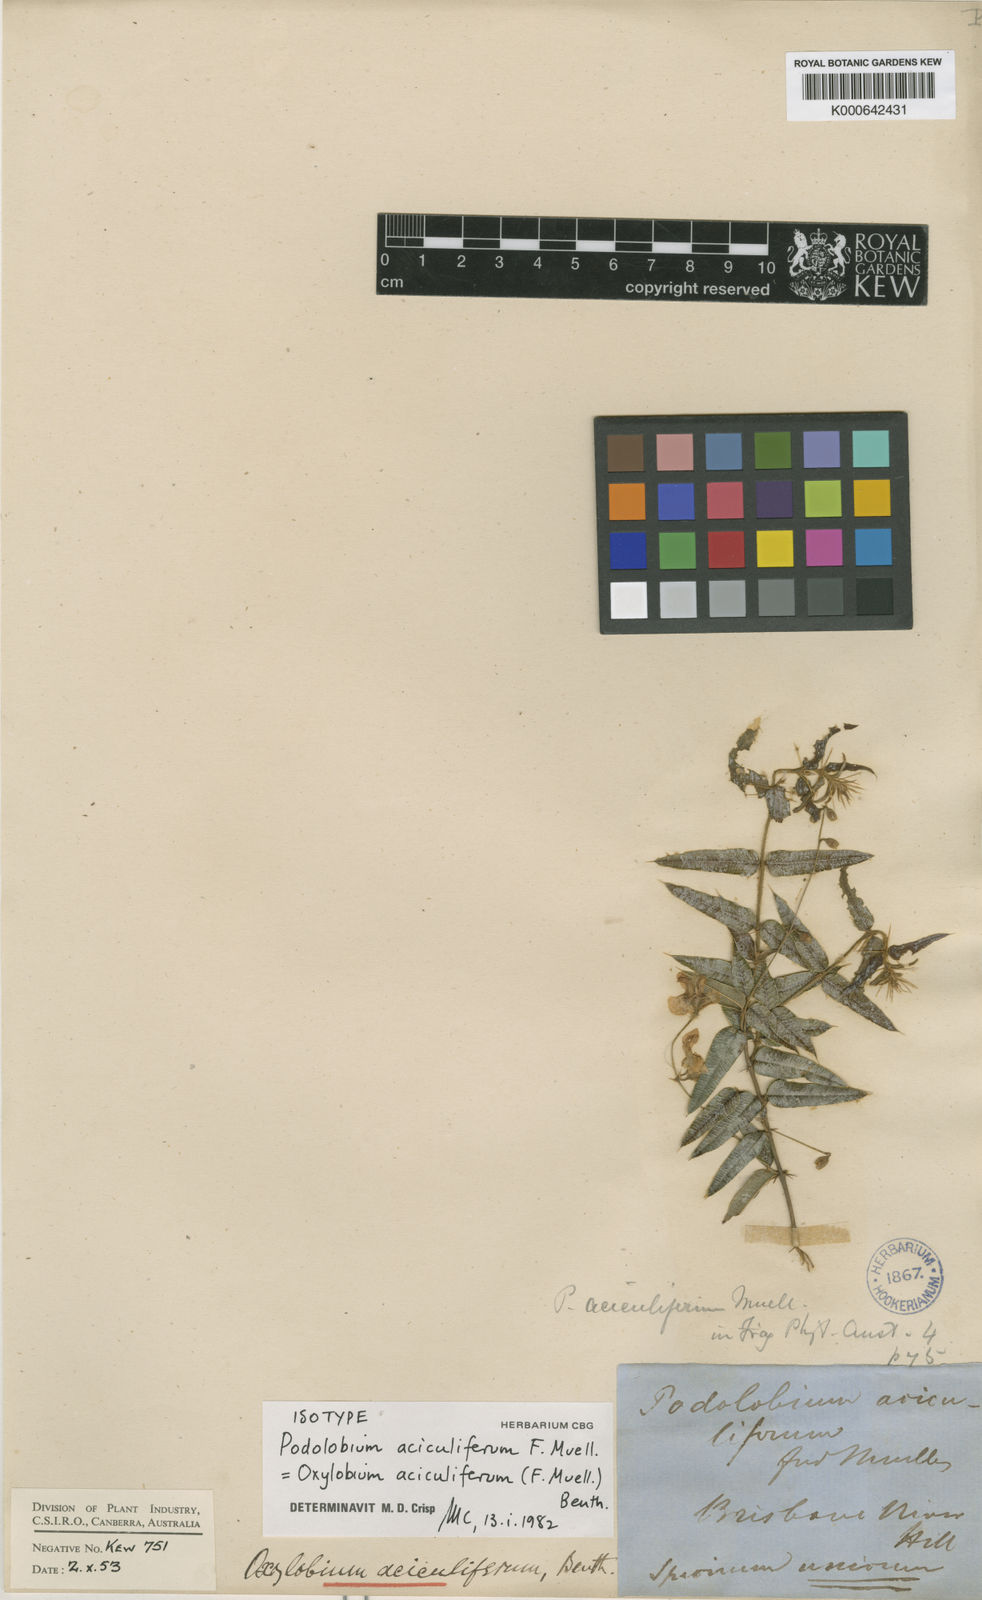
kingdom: Plantae
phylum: Tracheophyta
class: Magnoliopsida
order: Fabales
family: Fabaceae
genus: Podolobium
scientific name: Podolobium aciculiferum
